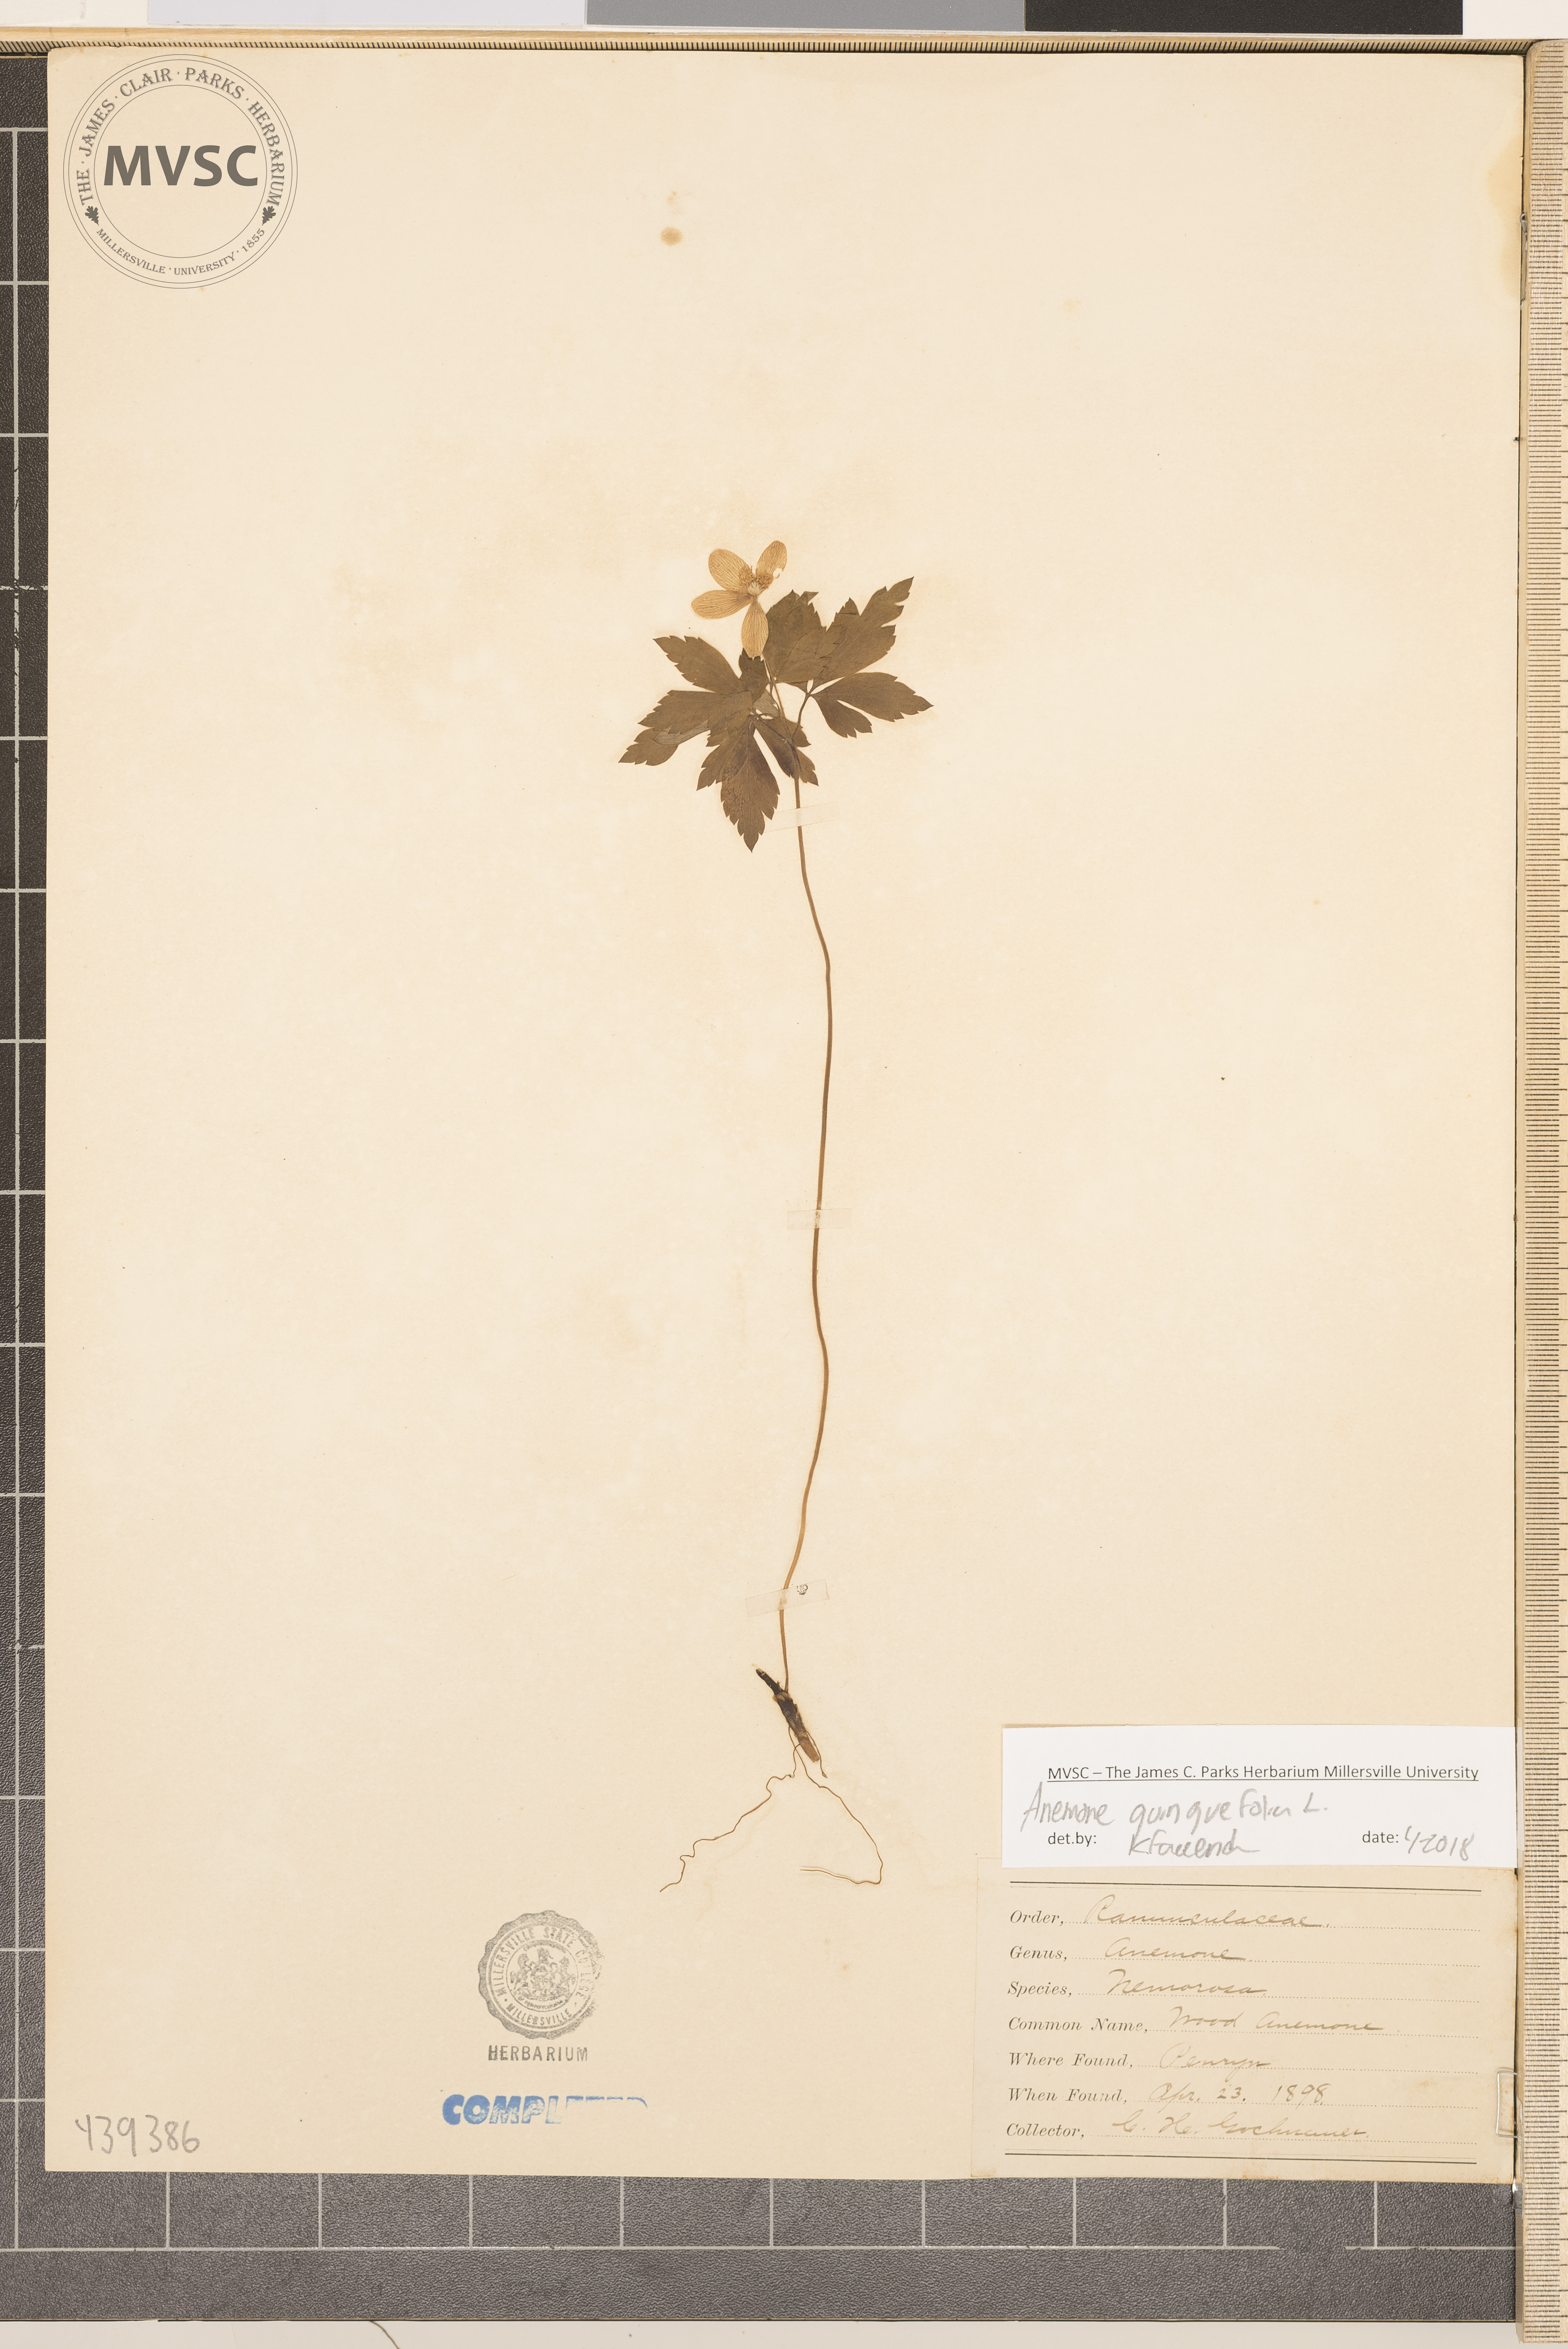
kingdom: Plantae
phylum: Tracheophyta
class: Magnoliopsida
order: Ranunculales
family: Ranunculaceae
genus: Anemone
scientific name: Anemone quinquefolia
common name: Wood anemone
